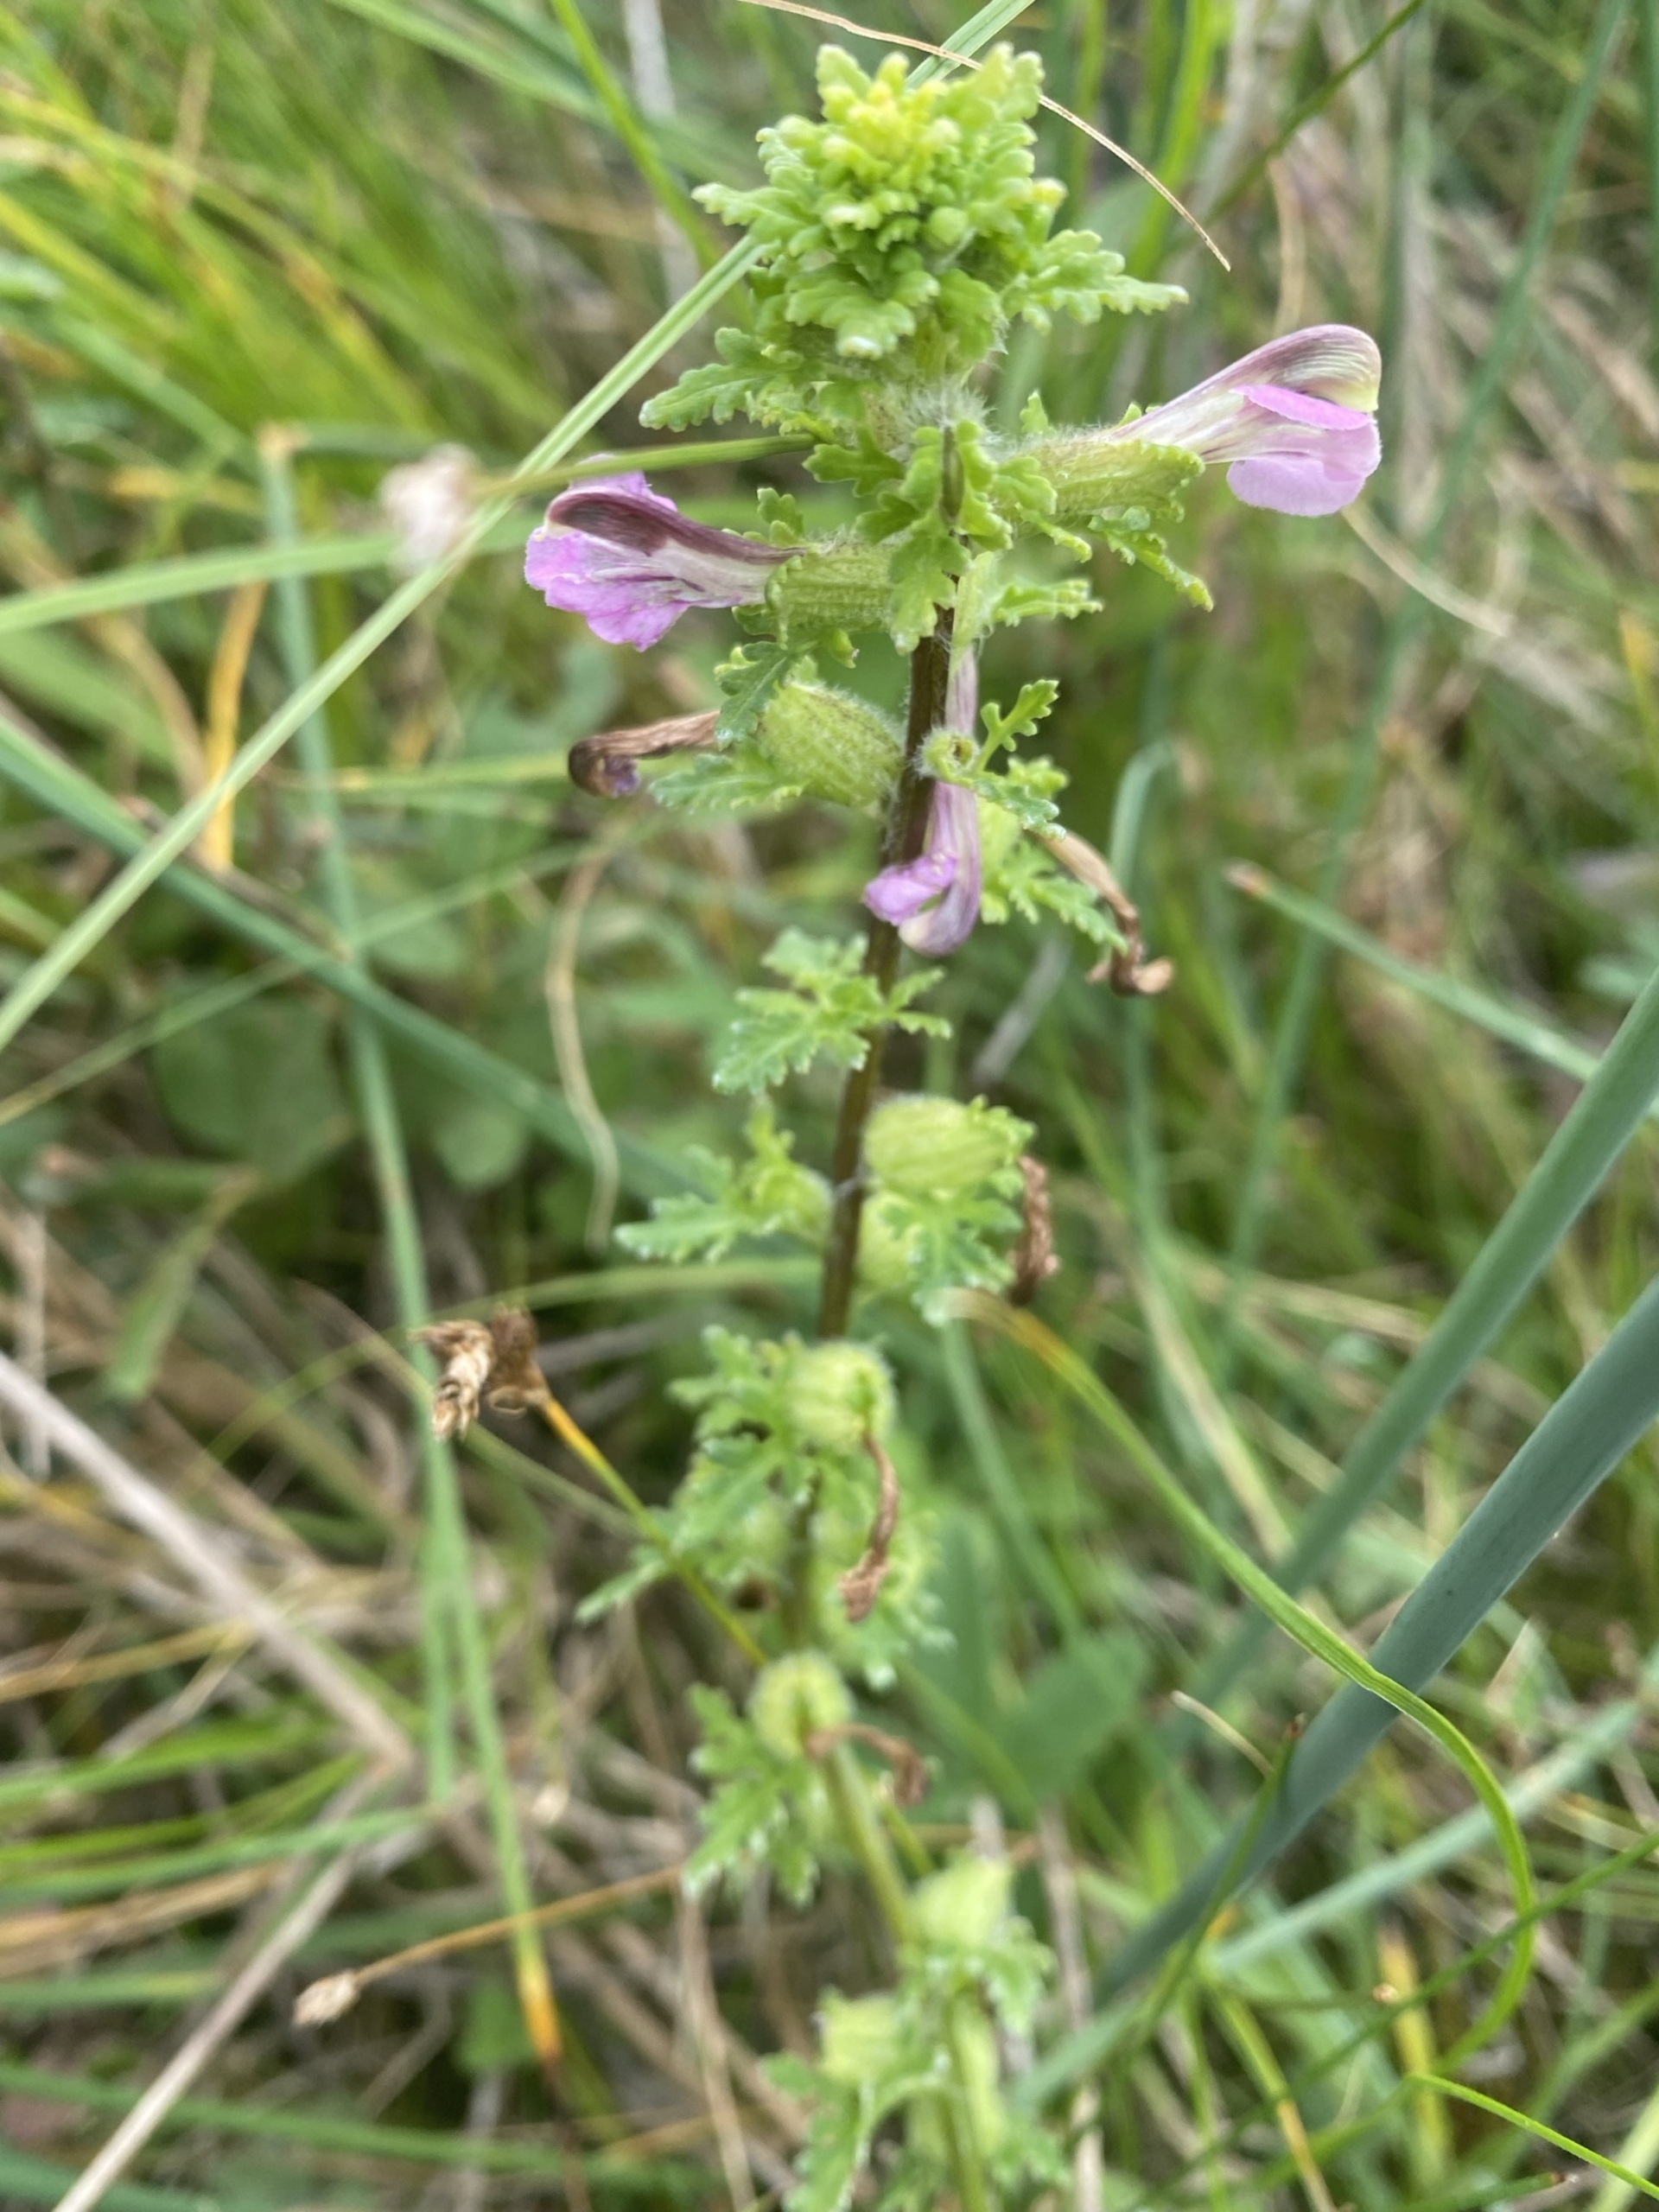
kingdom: Plantae
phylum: Tracheophyta
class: Magnoliopsida
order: Lamiales
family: Orobanchaceae
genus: Pedicularis
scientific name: Pedicularis palustris
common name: Eng-troldurt
